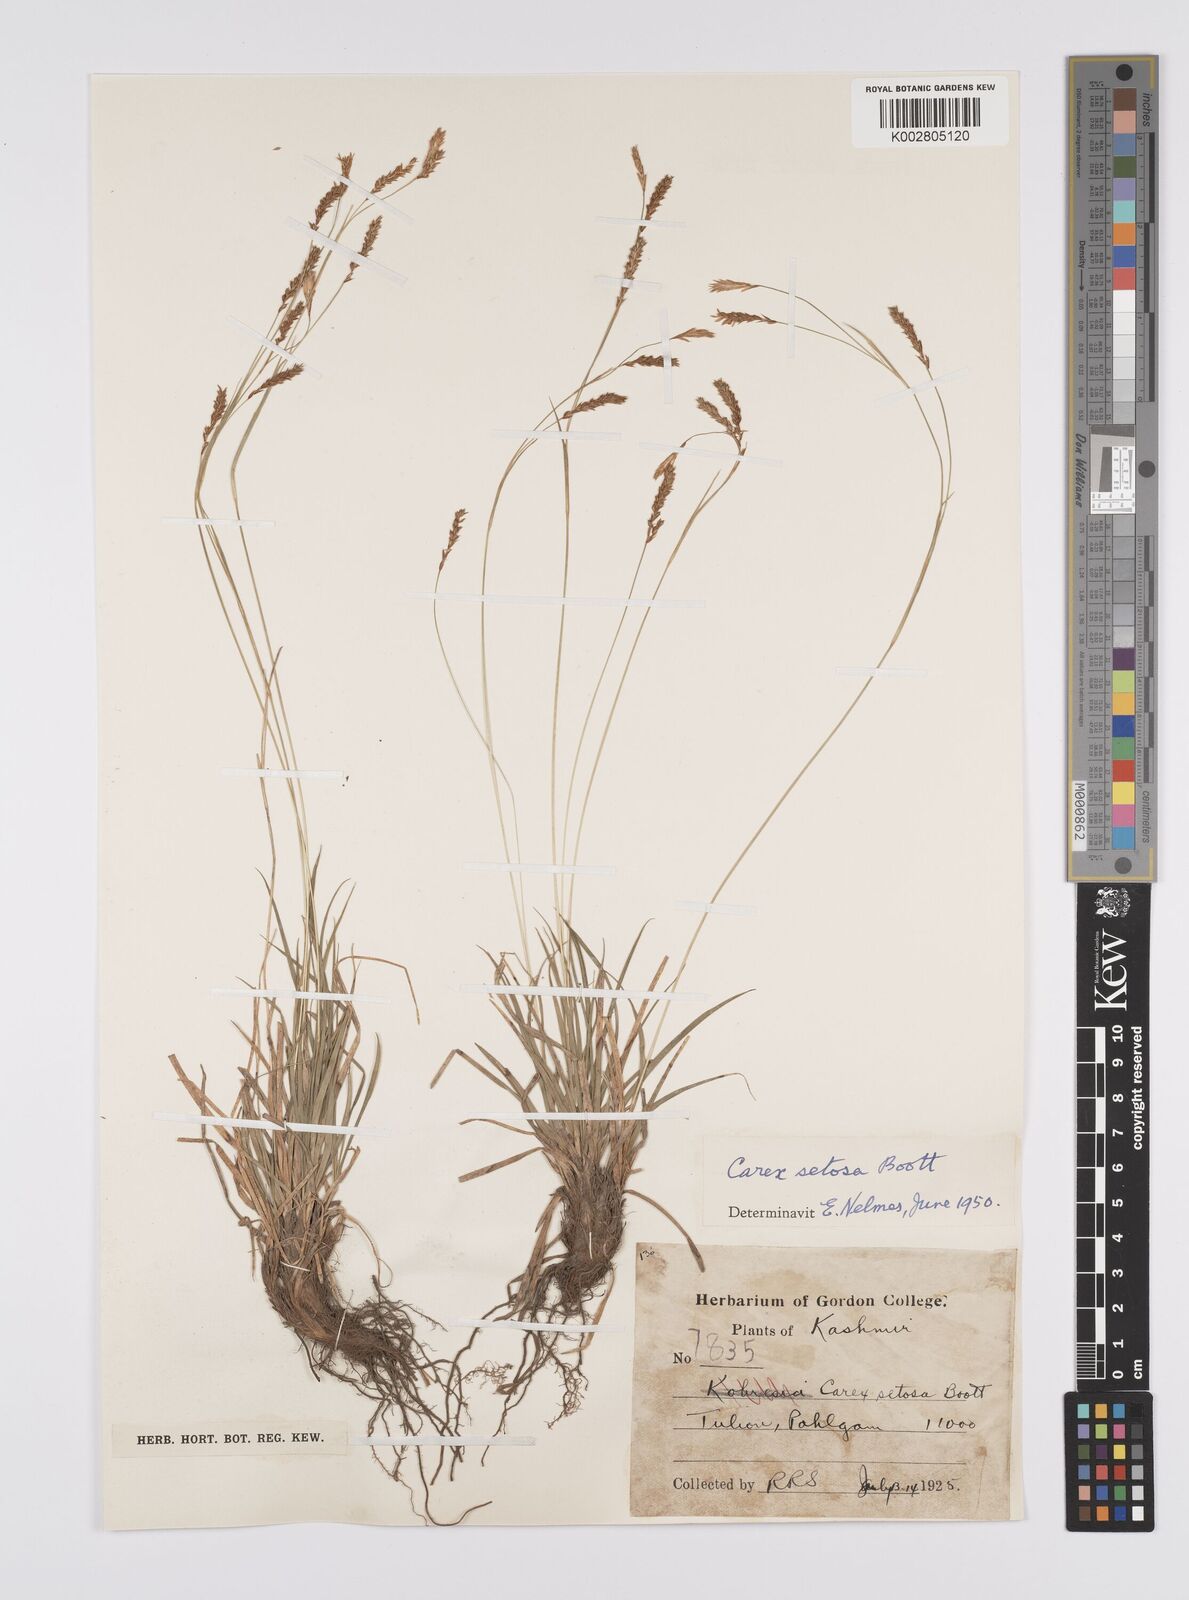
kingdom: Plantae
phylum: Tracheophyta
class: Liliopsida
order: Poales
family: Cyperaceae
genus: Carex
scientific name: Carex setosa
